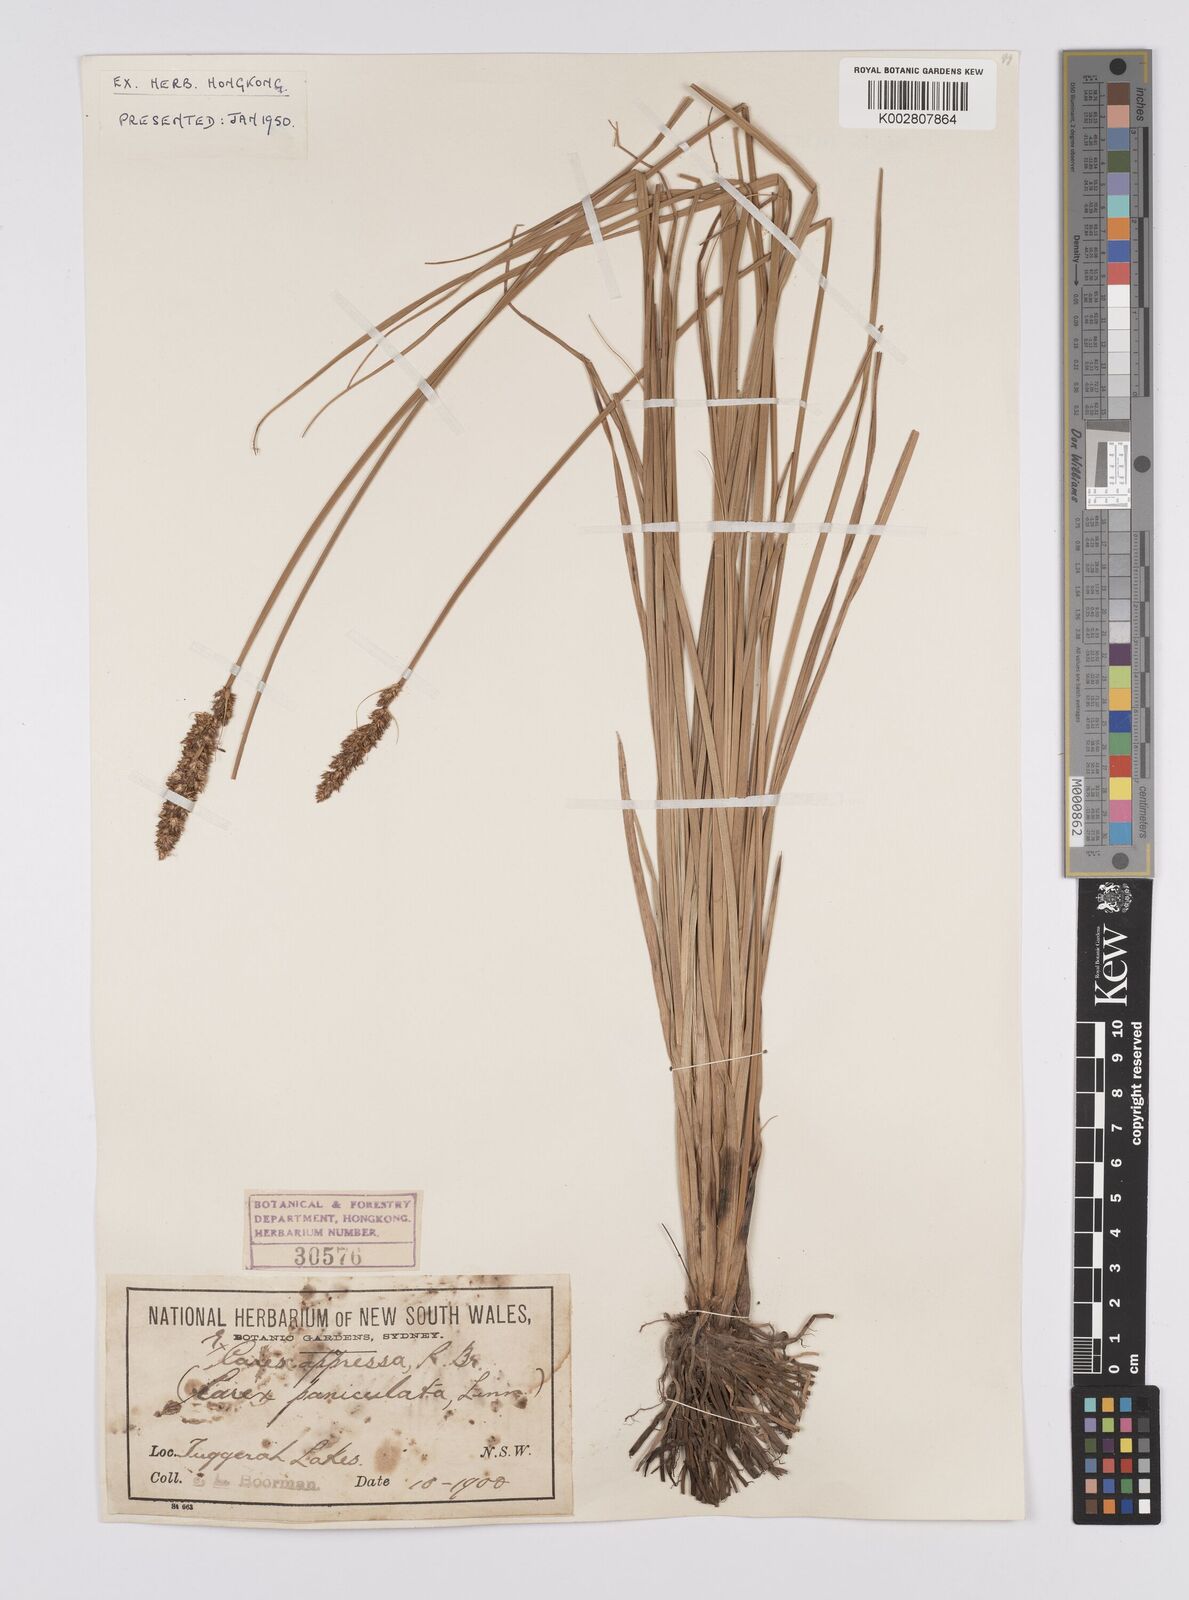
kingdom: Plantae
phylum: Tracheophyta
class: Liliopsida
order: Poales
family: Cyperaceae
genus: Carex
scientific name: Carex appressa
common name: Tussock sedge
